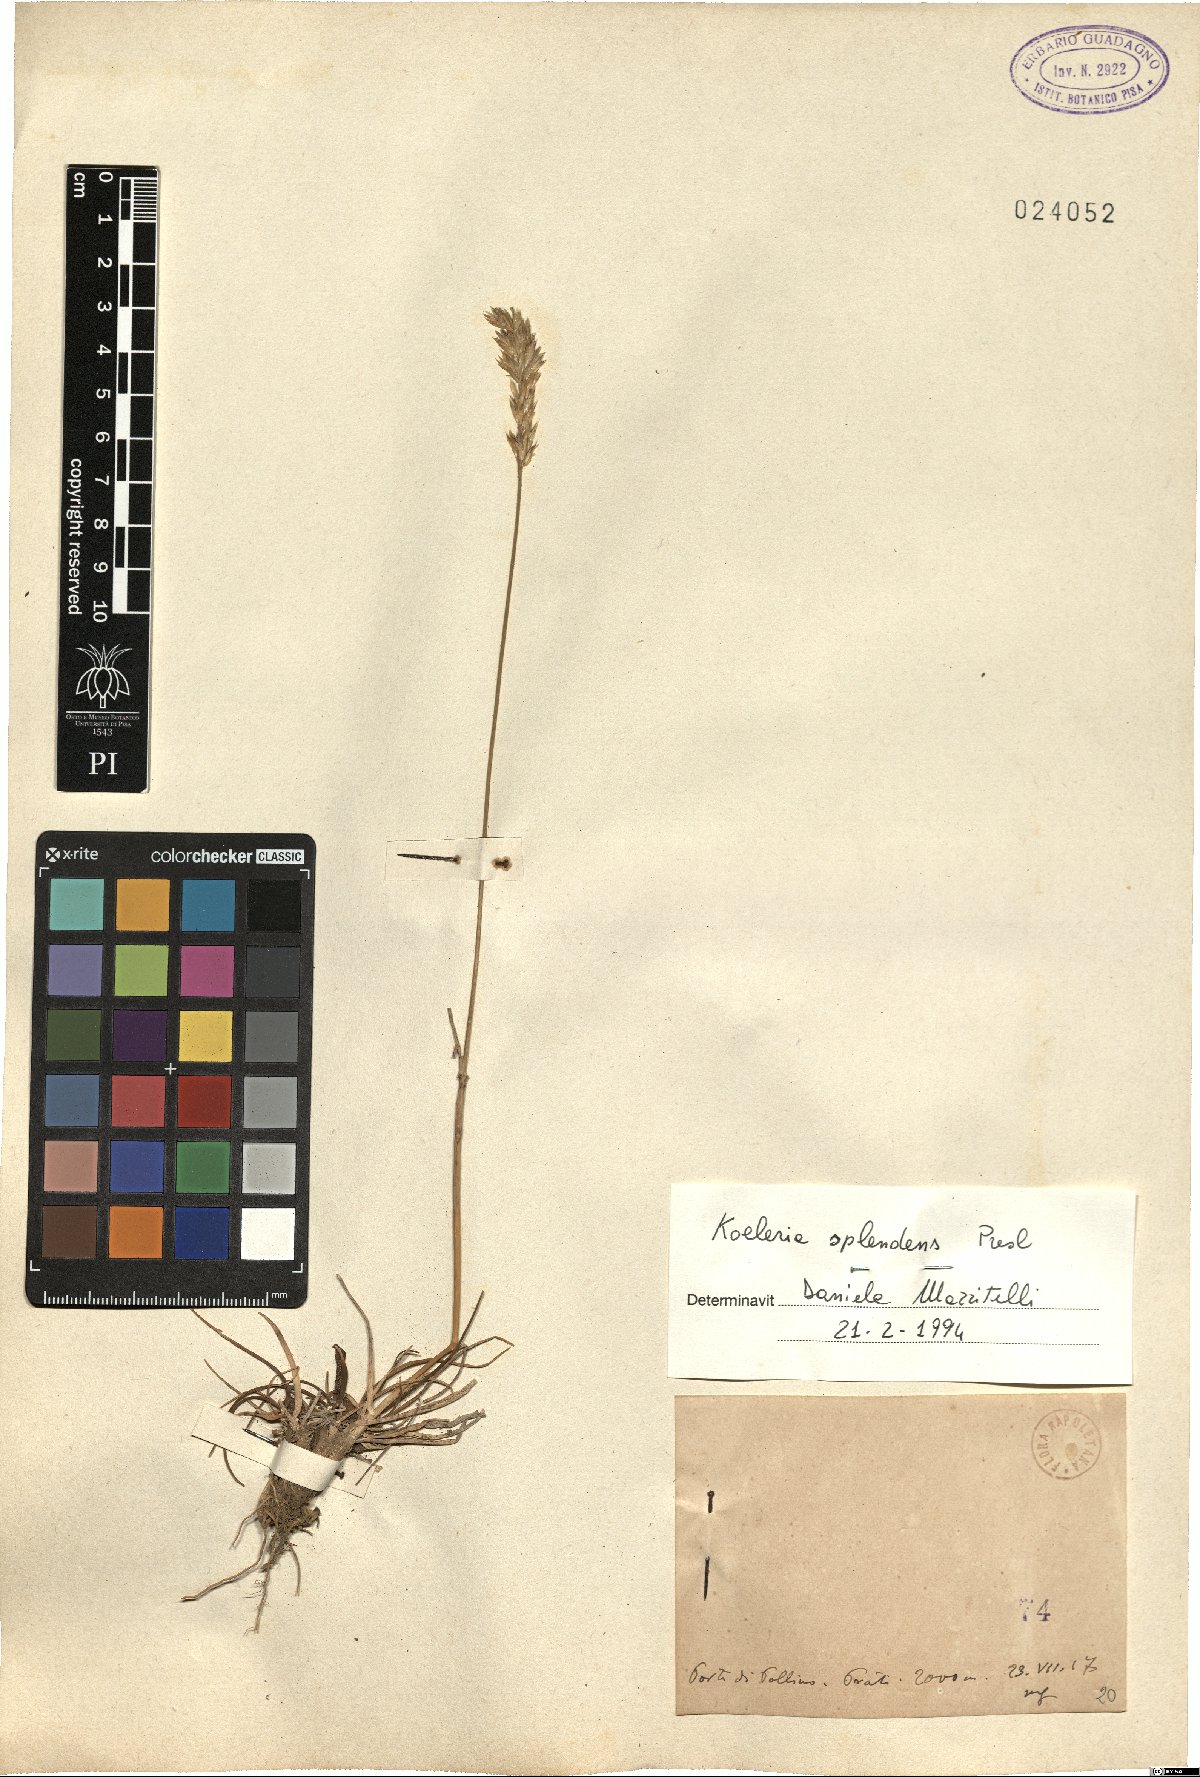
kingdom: Plantae
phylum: Tracheophyta
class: Liliopsida
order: Poales
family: Poaceae
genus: Koeleria
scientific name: Koeleria splendens
